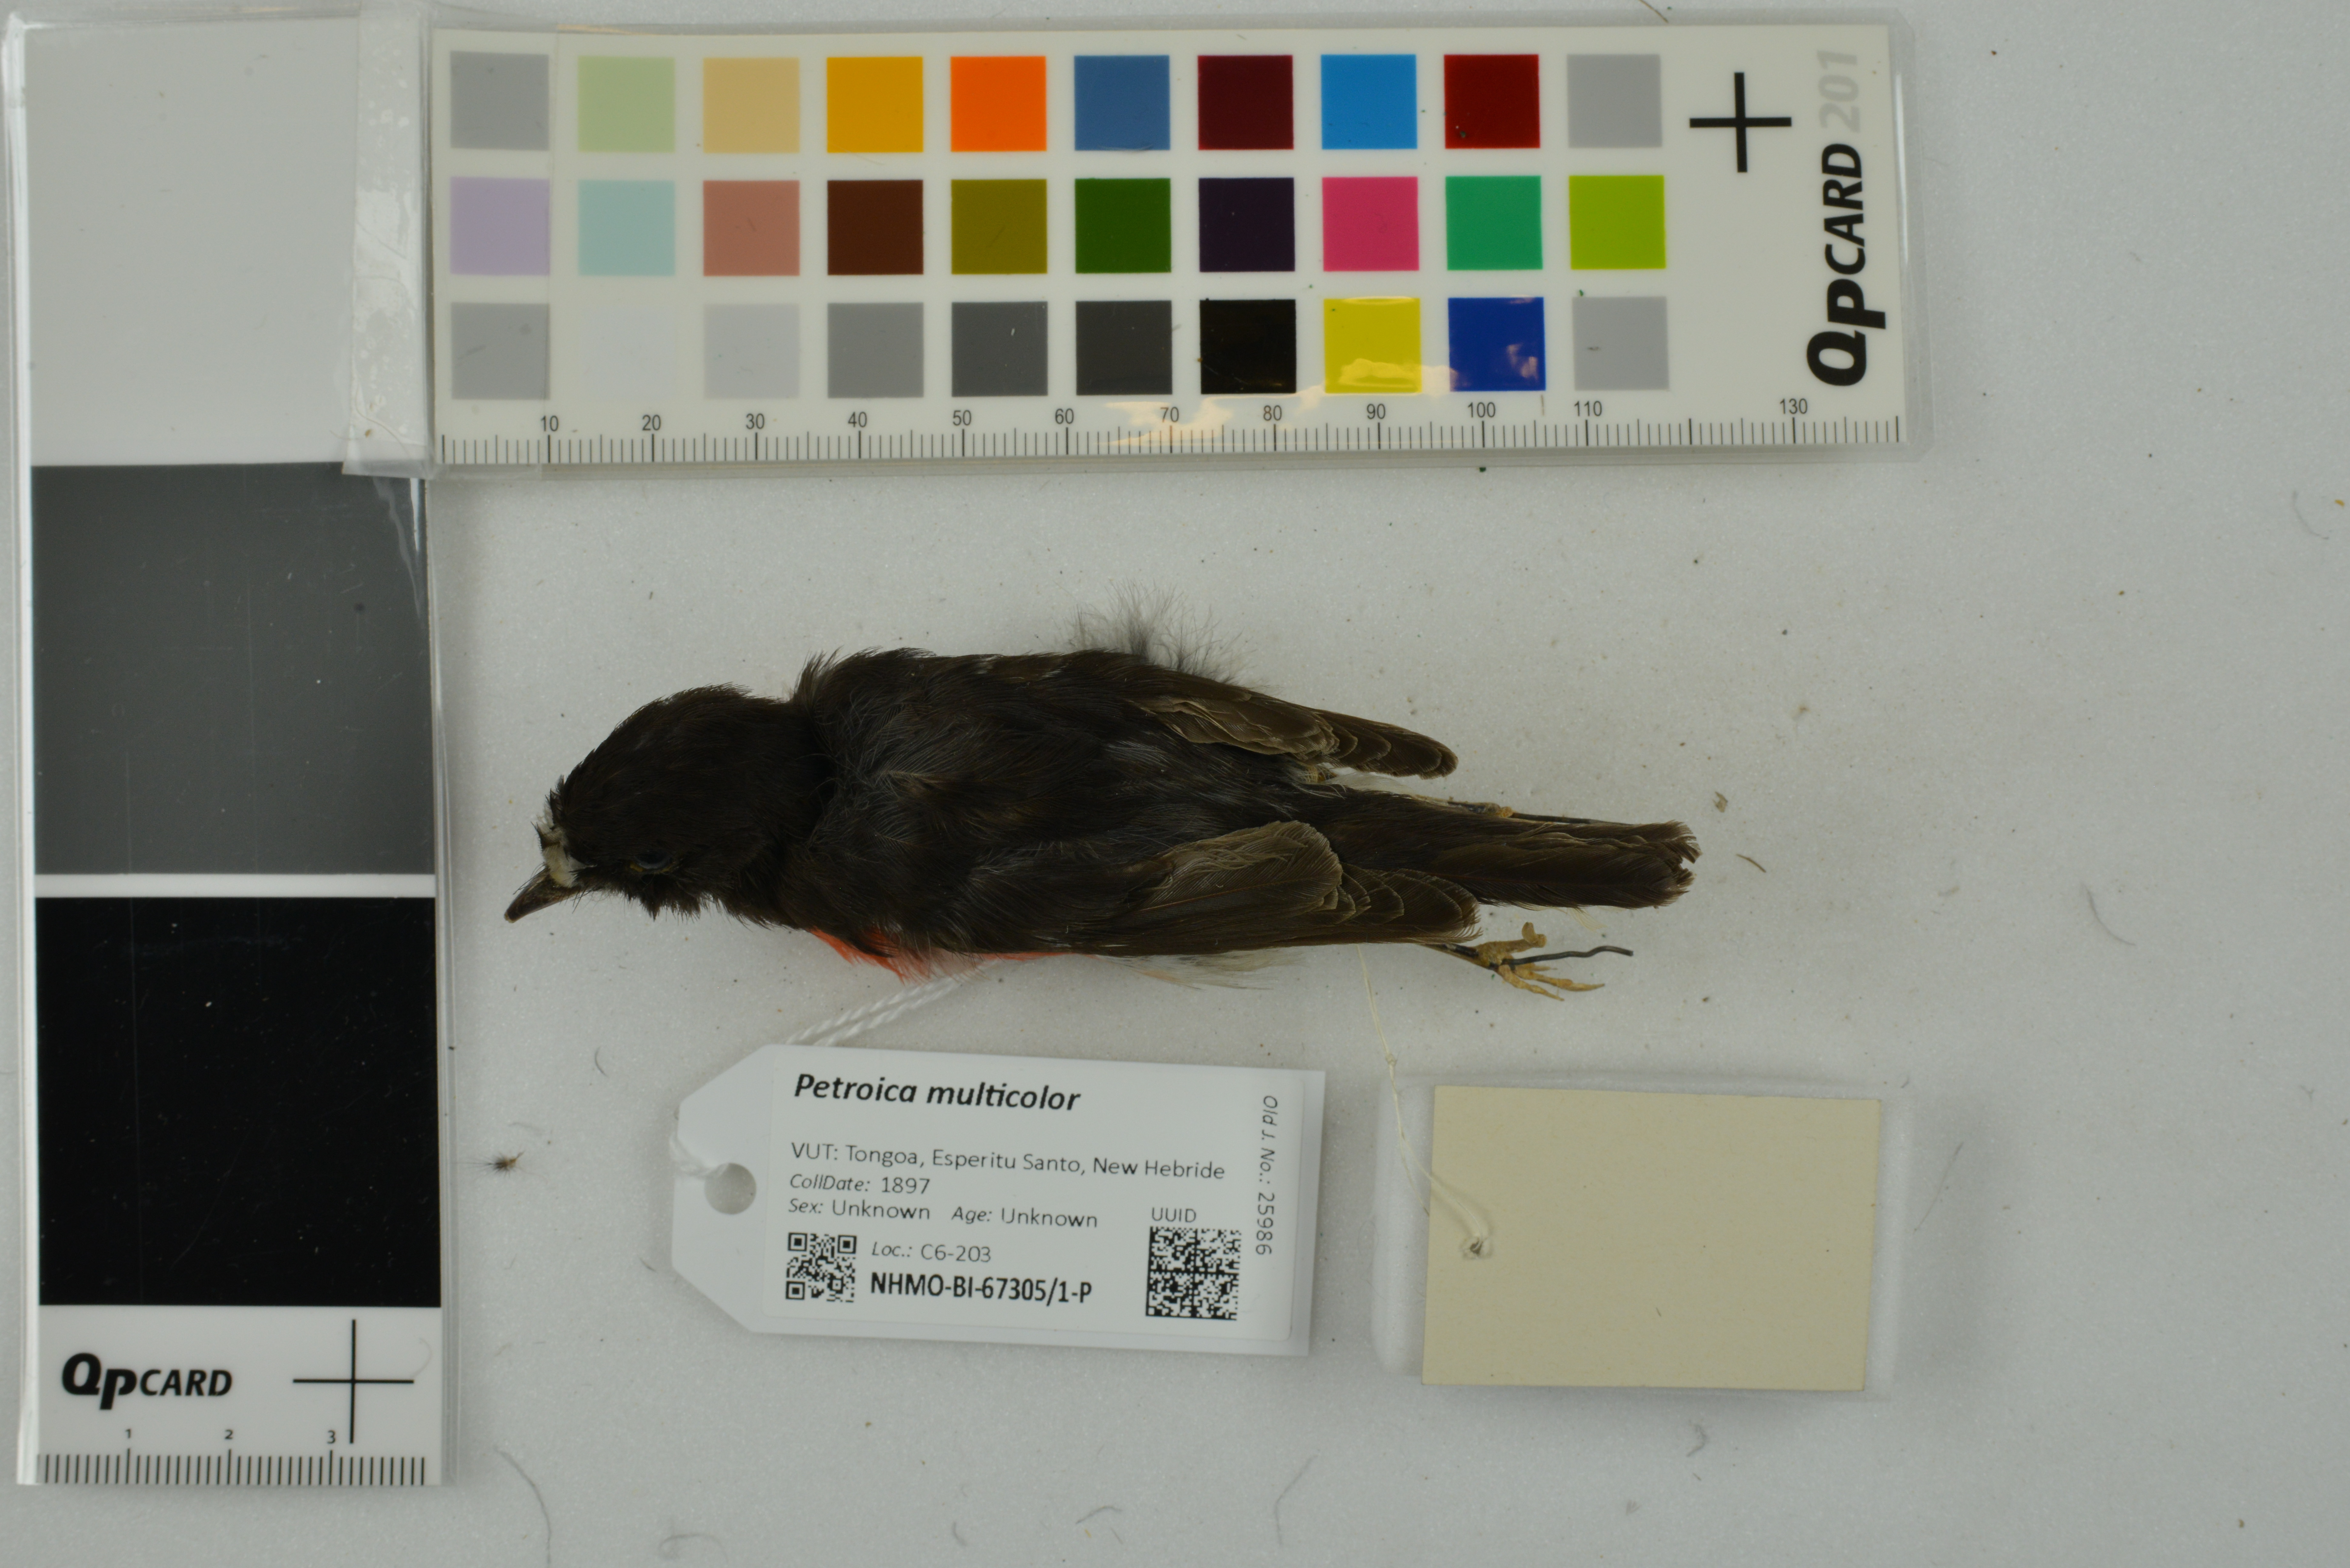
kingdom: Animalia
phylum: Chordata
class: Aves
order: Passeriformes
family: Petroicidae
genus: Petroica
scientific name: Petroica multicolor
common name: Pacific robin
